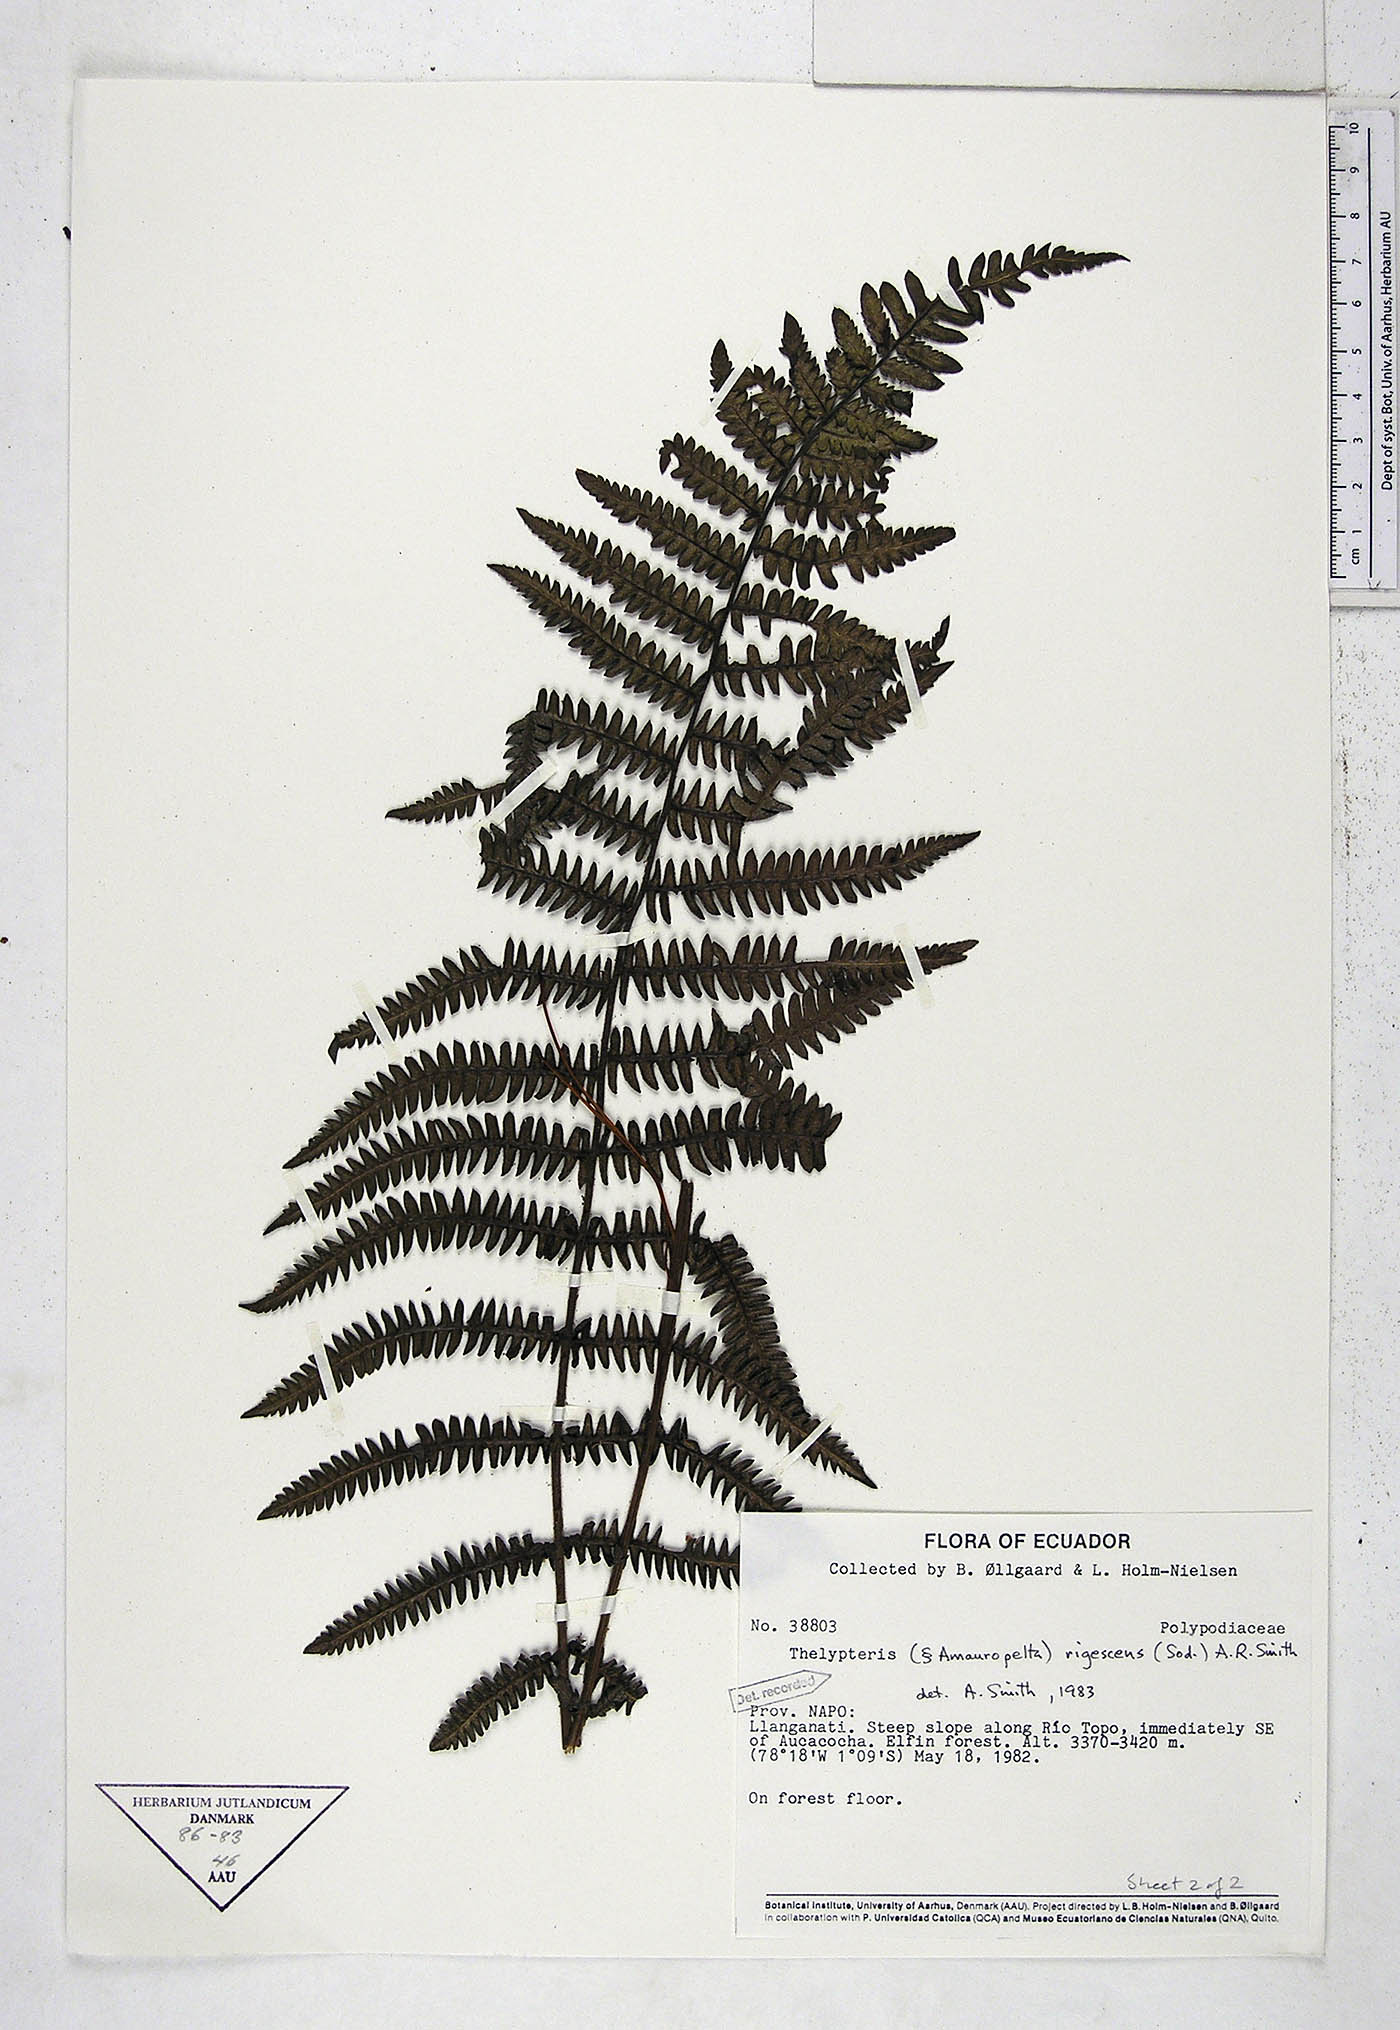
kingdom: Plantae
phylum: Tracheophyta
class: Polypodiopsida
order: Polypodiales
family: Thelypteridaceae
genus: Amauropelta
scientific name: Amauropelta rigescens
